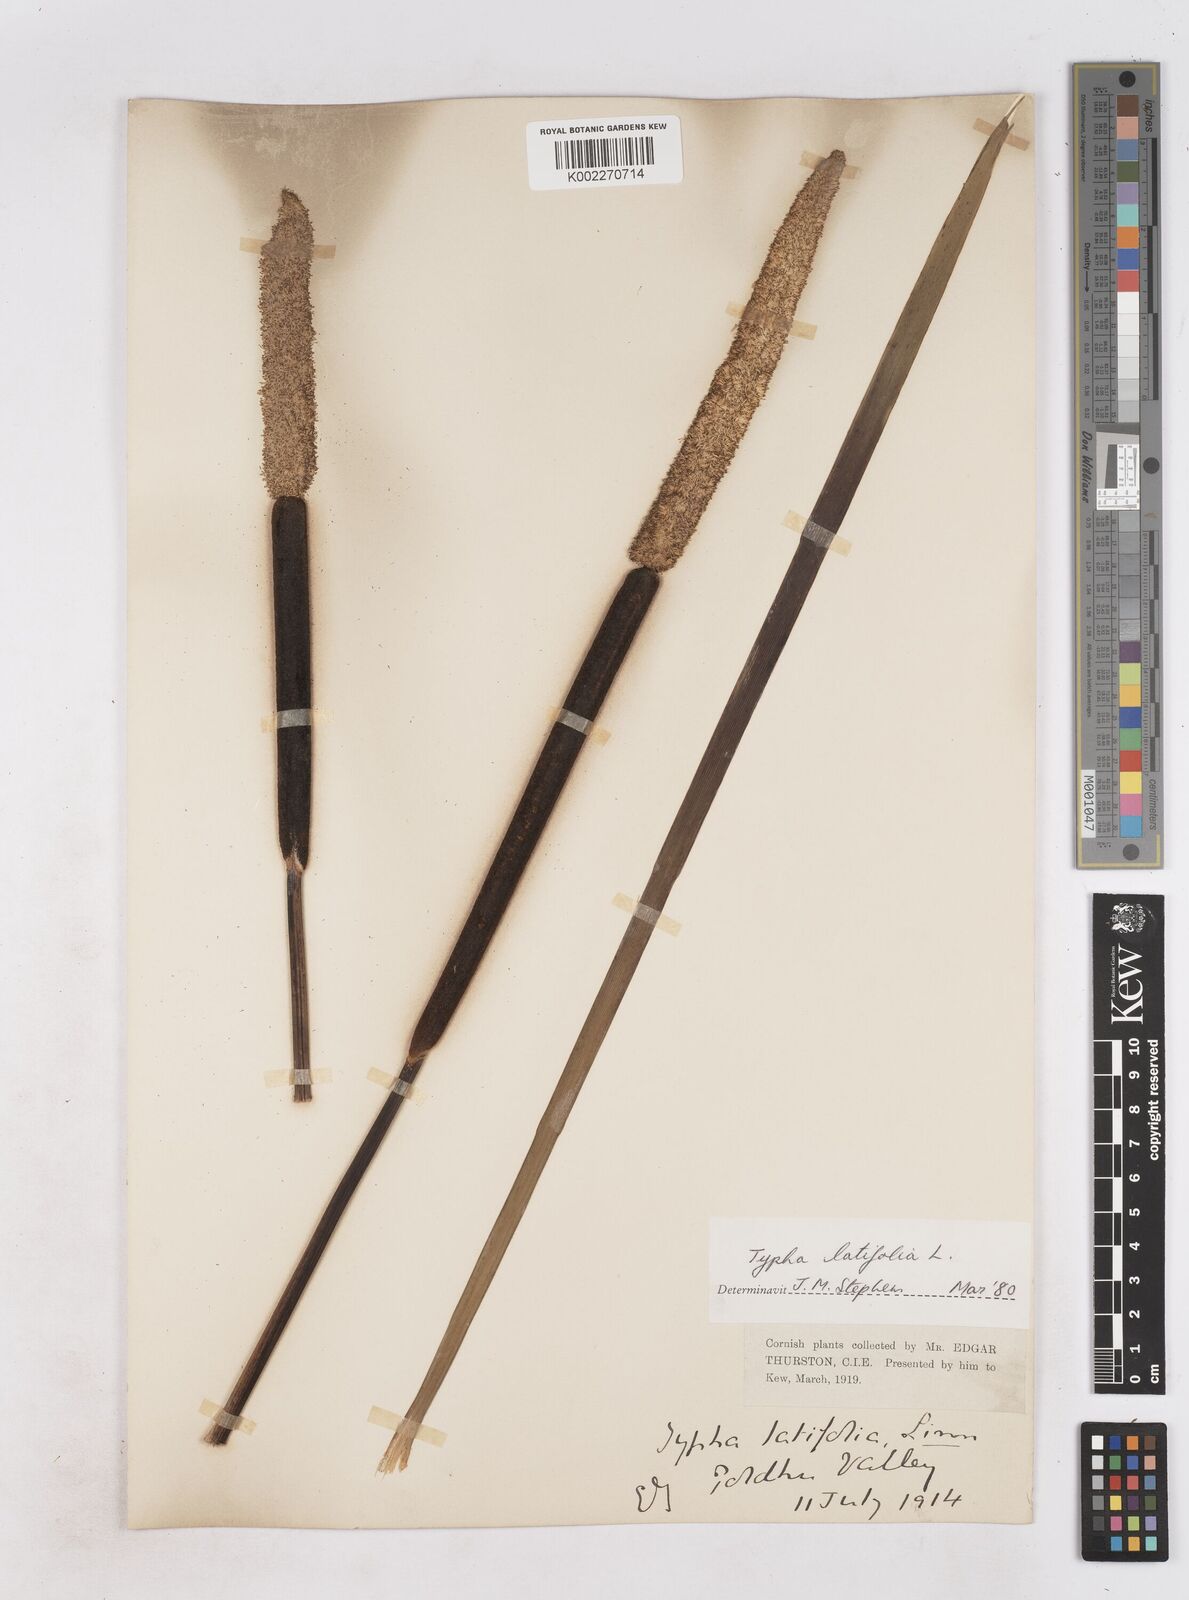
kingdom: Plantae
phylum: Tracheophyta
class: Liliopsida
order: Poales
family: Typhaceae
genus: Typha
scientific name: Typha latifolia
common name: Broadleaf cattail
